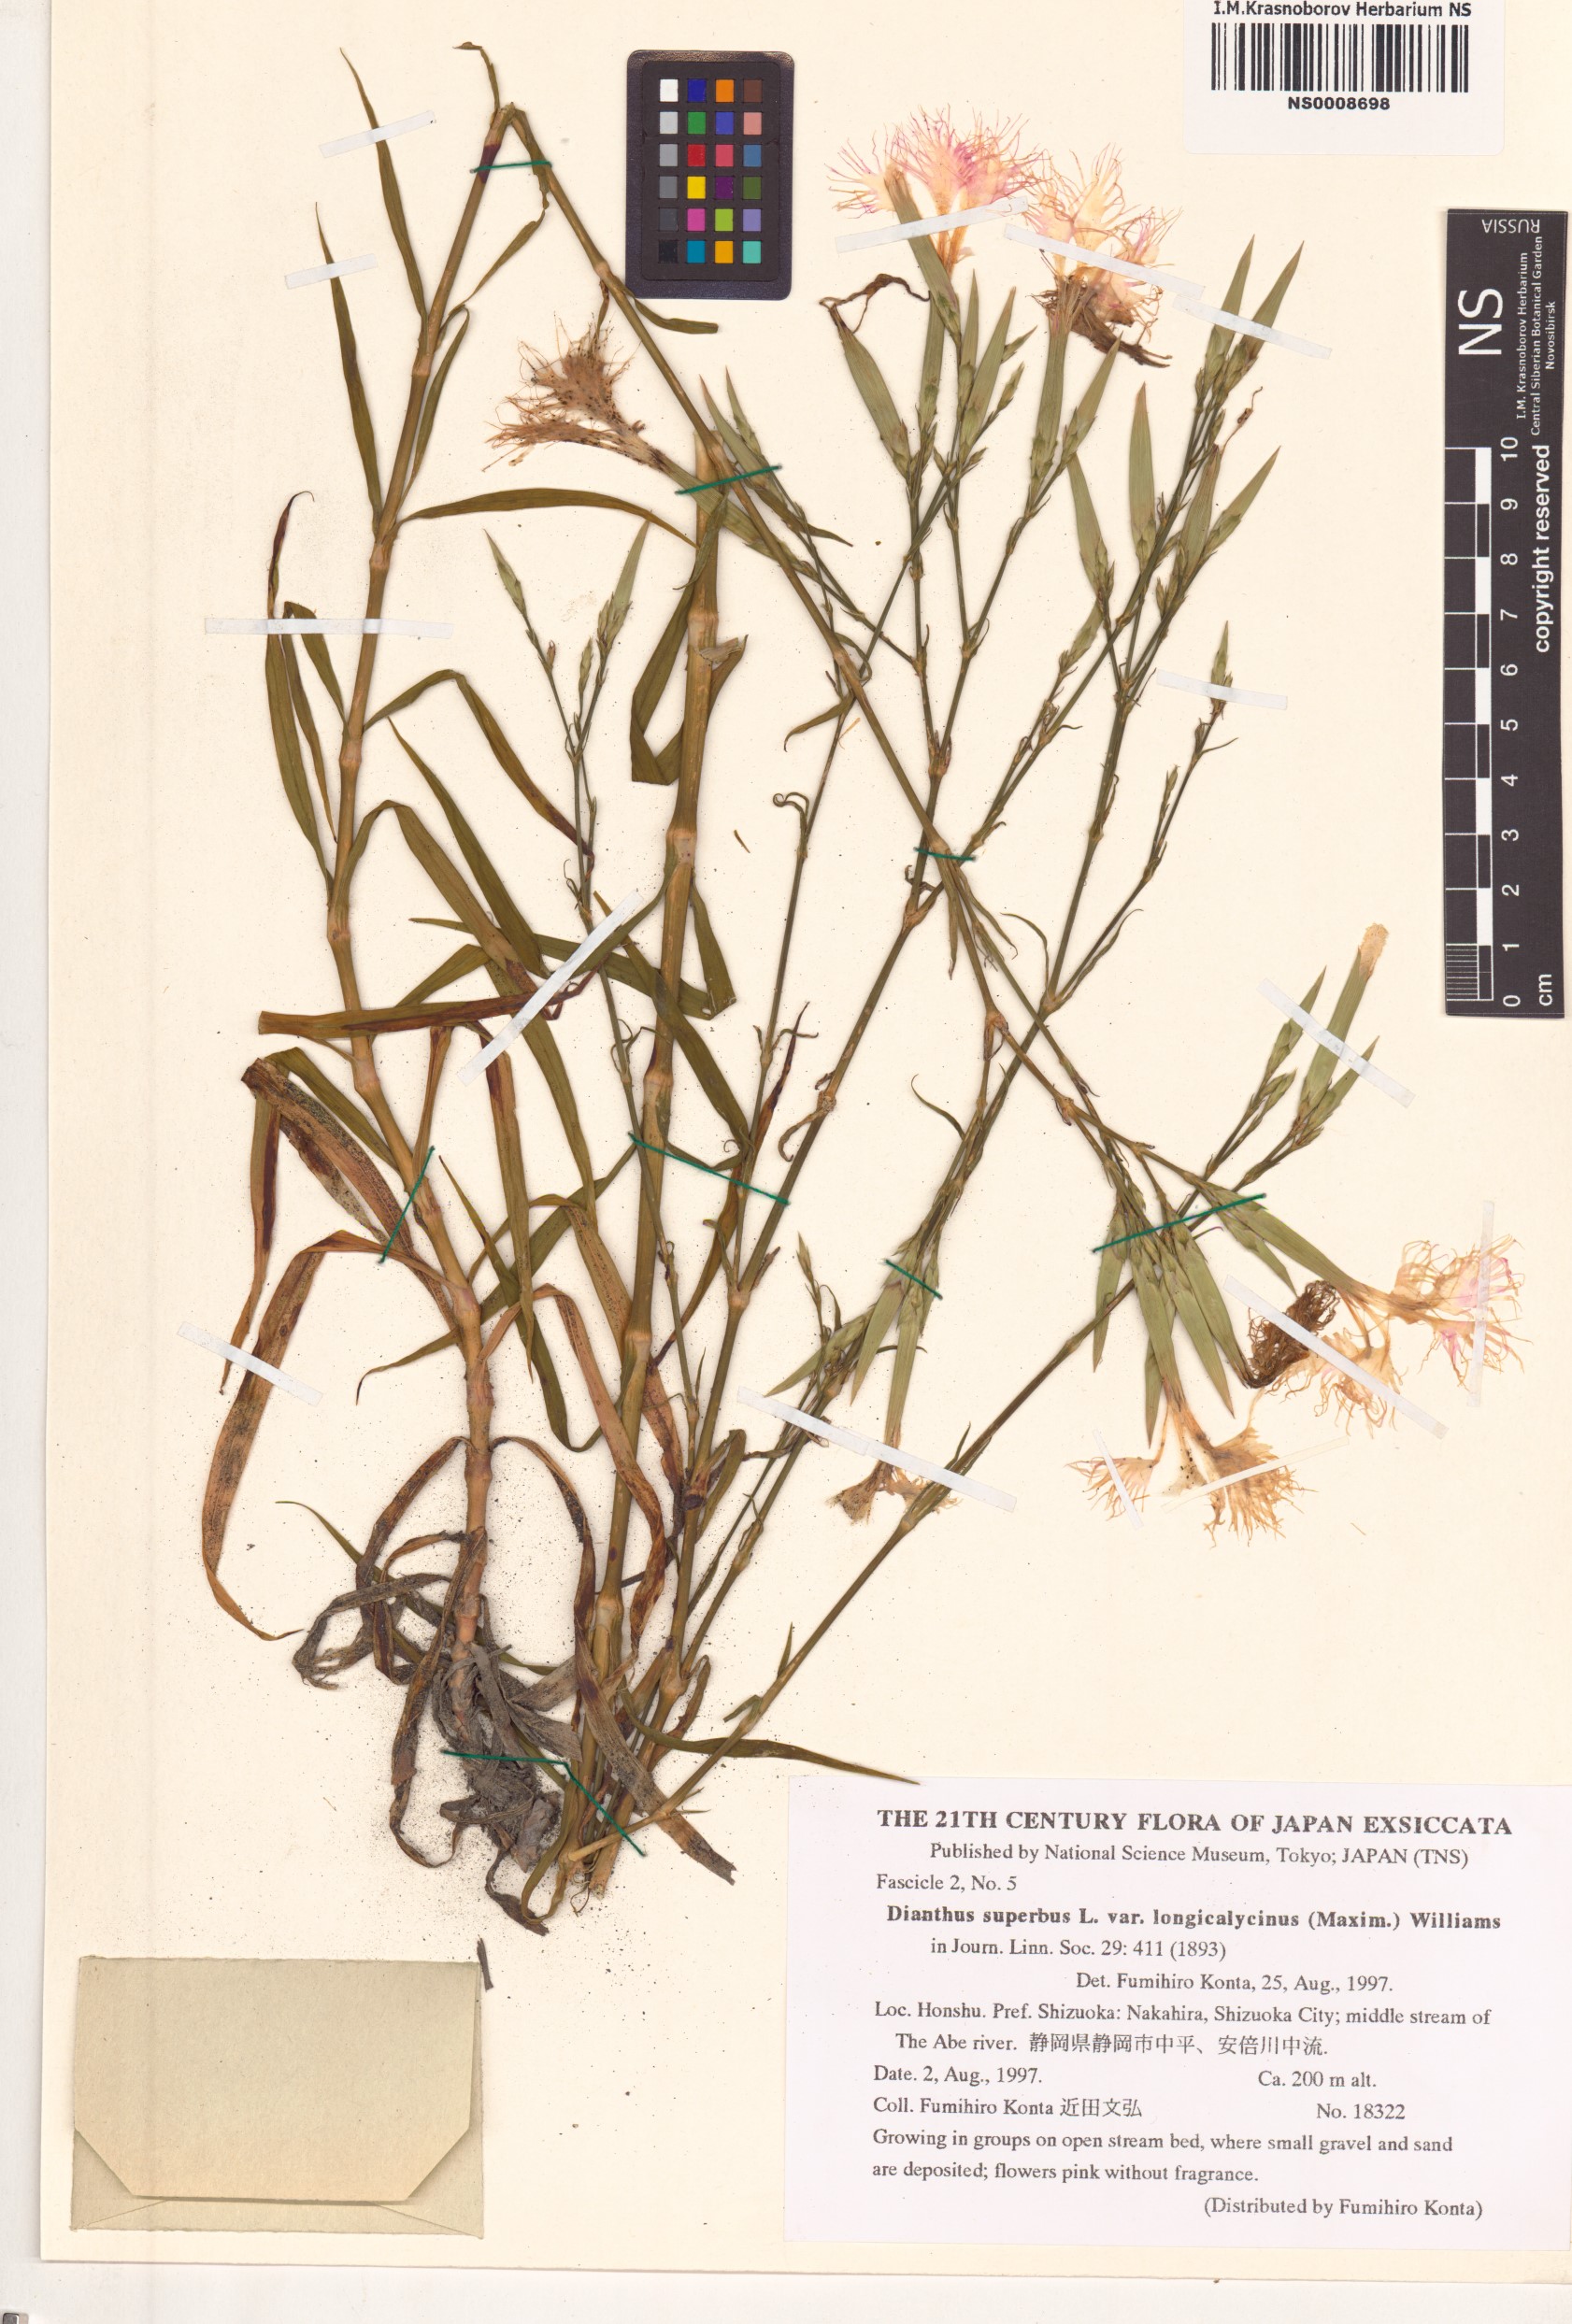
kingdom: Plantae
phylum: Tracheophyta
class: Magnoliopsida
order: Caryophyllales
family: Caryophyllaceae
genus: Dianthus
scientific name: Dianthus longicalyx
